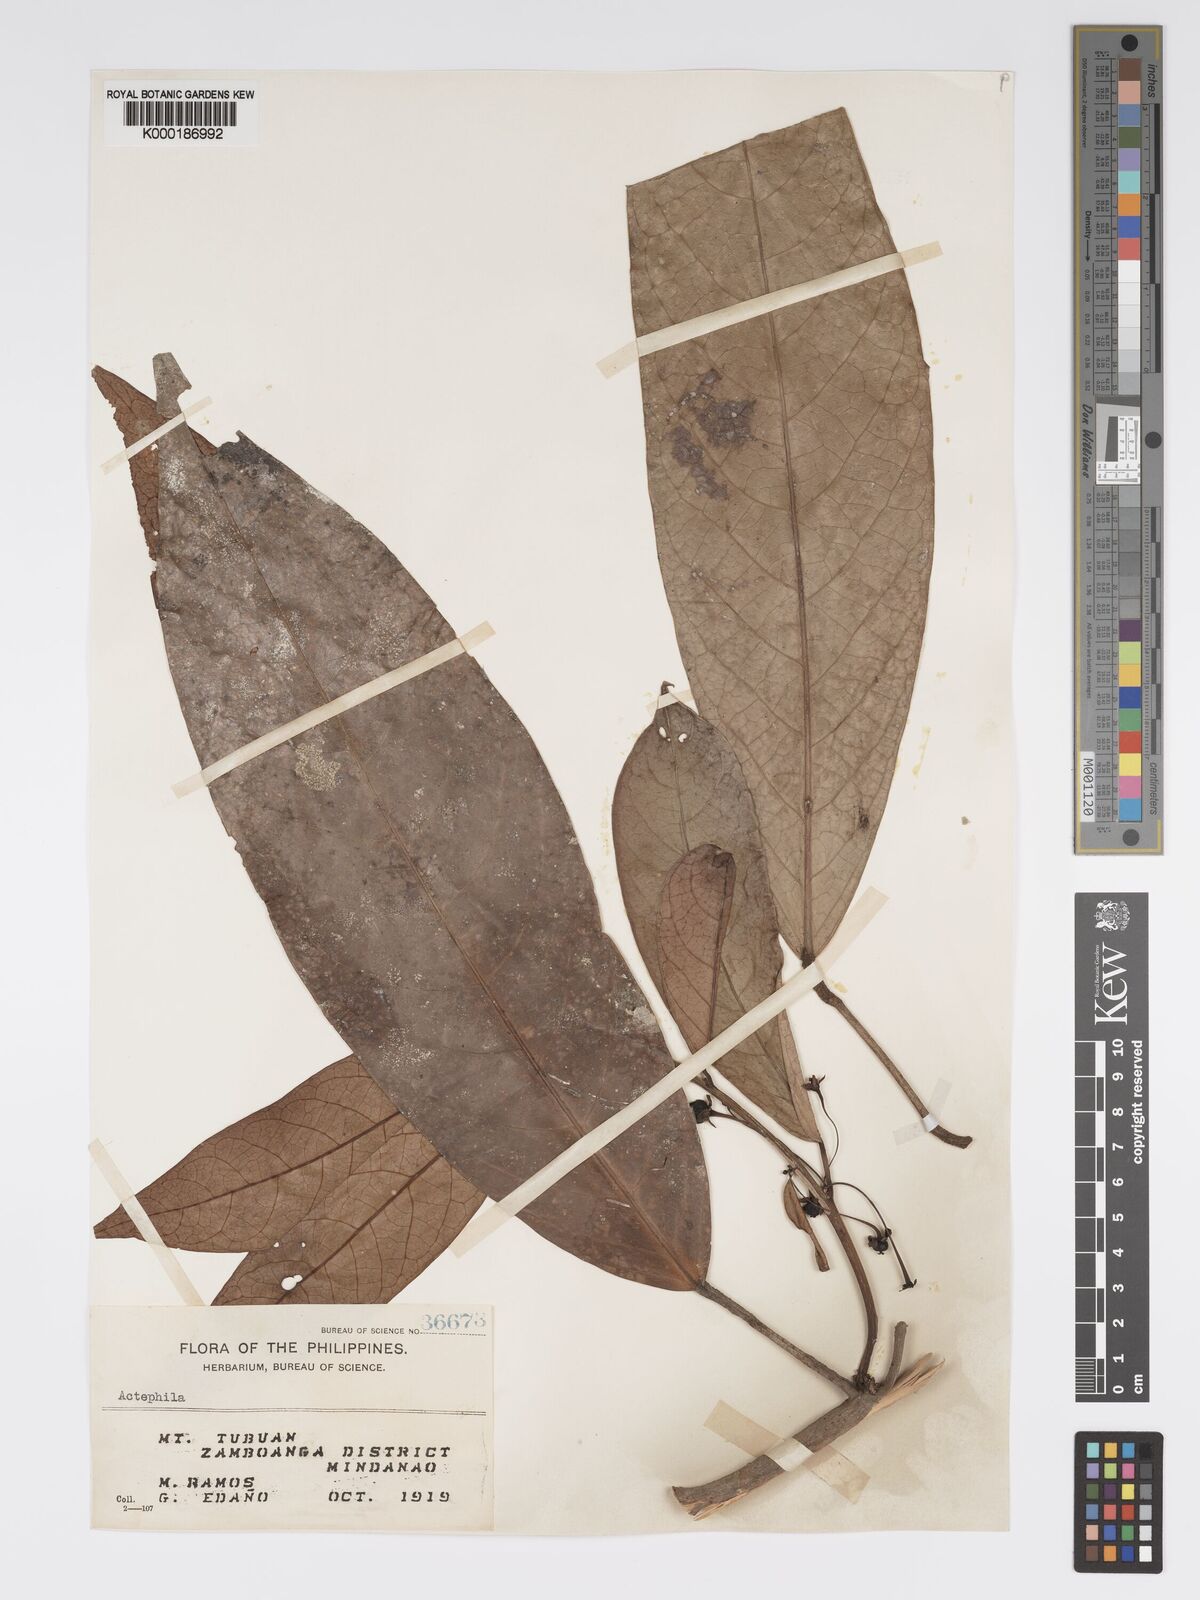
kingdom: Plantae
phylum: Tracheophyta
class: Magnoliopsida
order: Malpighiales
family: Phyllanthaceae
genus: Actephila
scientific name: Actephila
